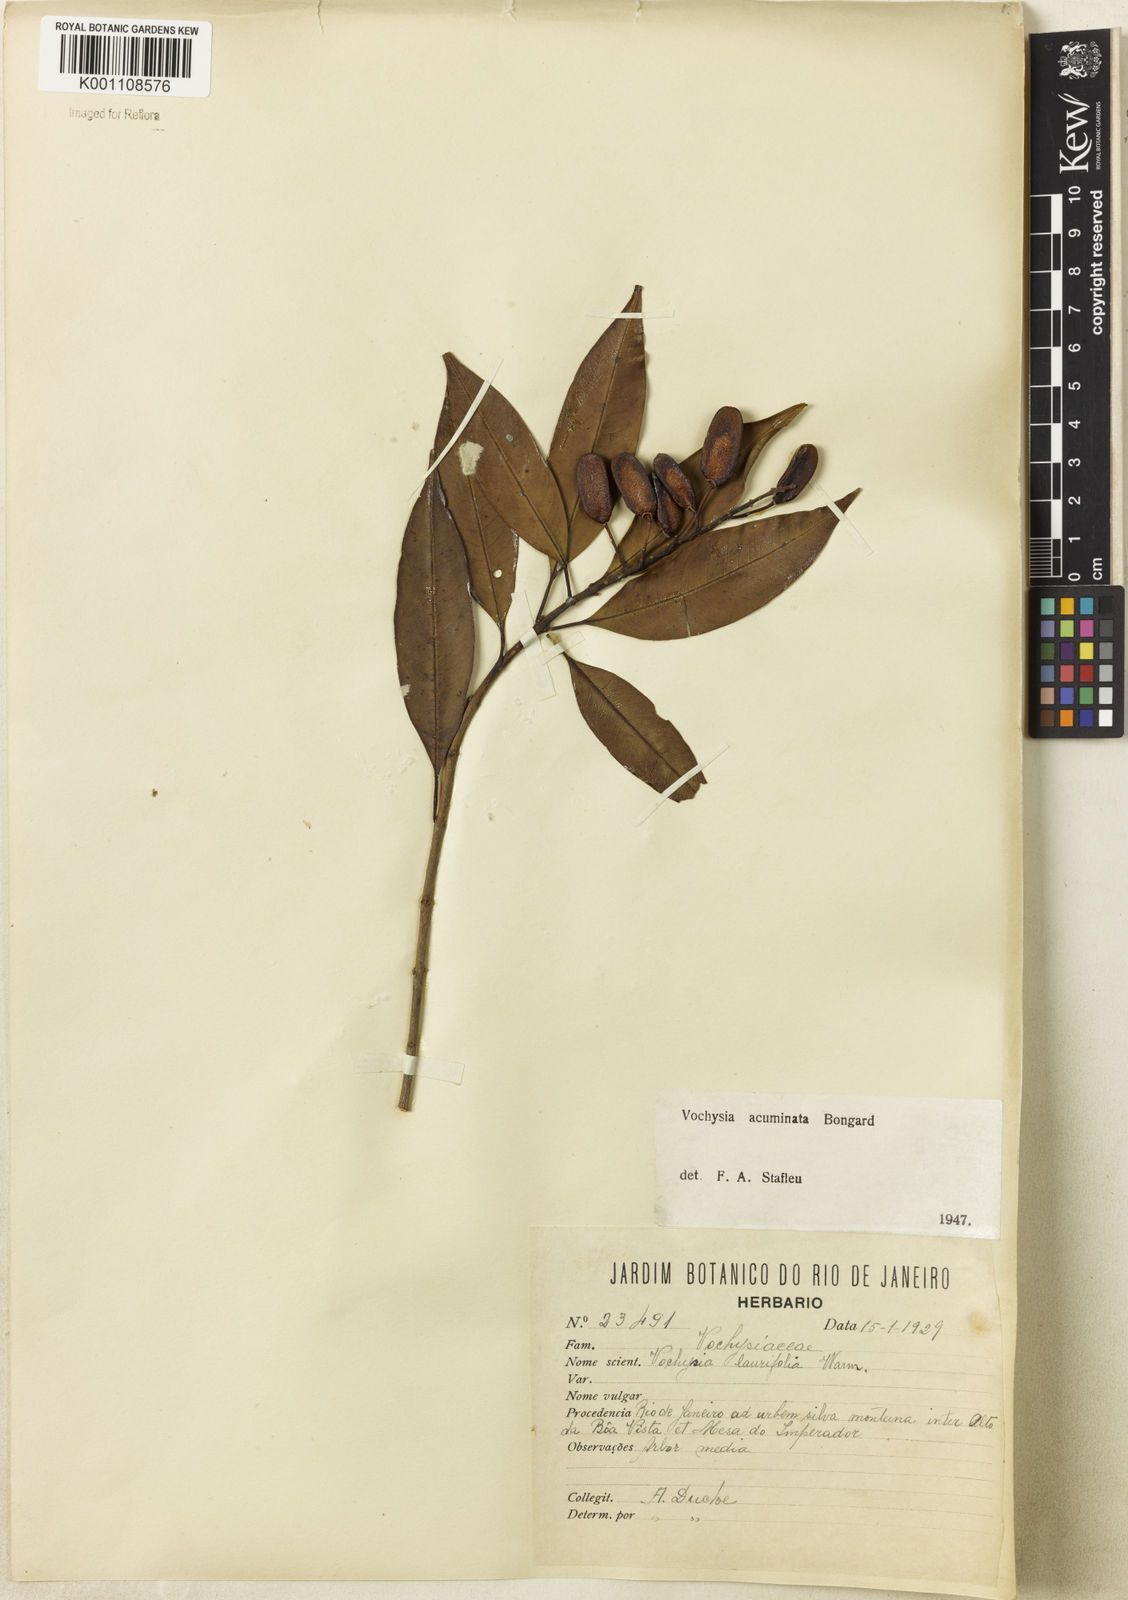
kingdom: Plantae
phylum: Tracheophyta
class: Magnoliopsida
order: Myrtales
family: Vochysiaceae
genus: Vochysia
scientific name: Vochysia laurifolia
